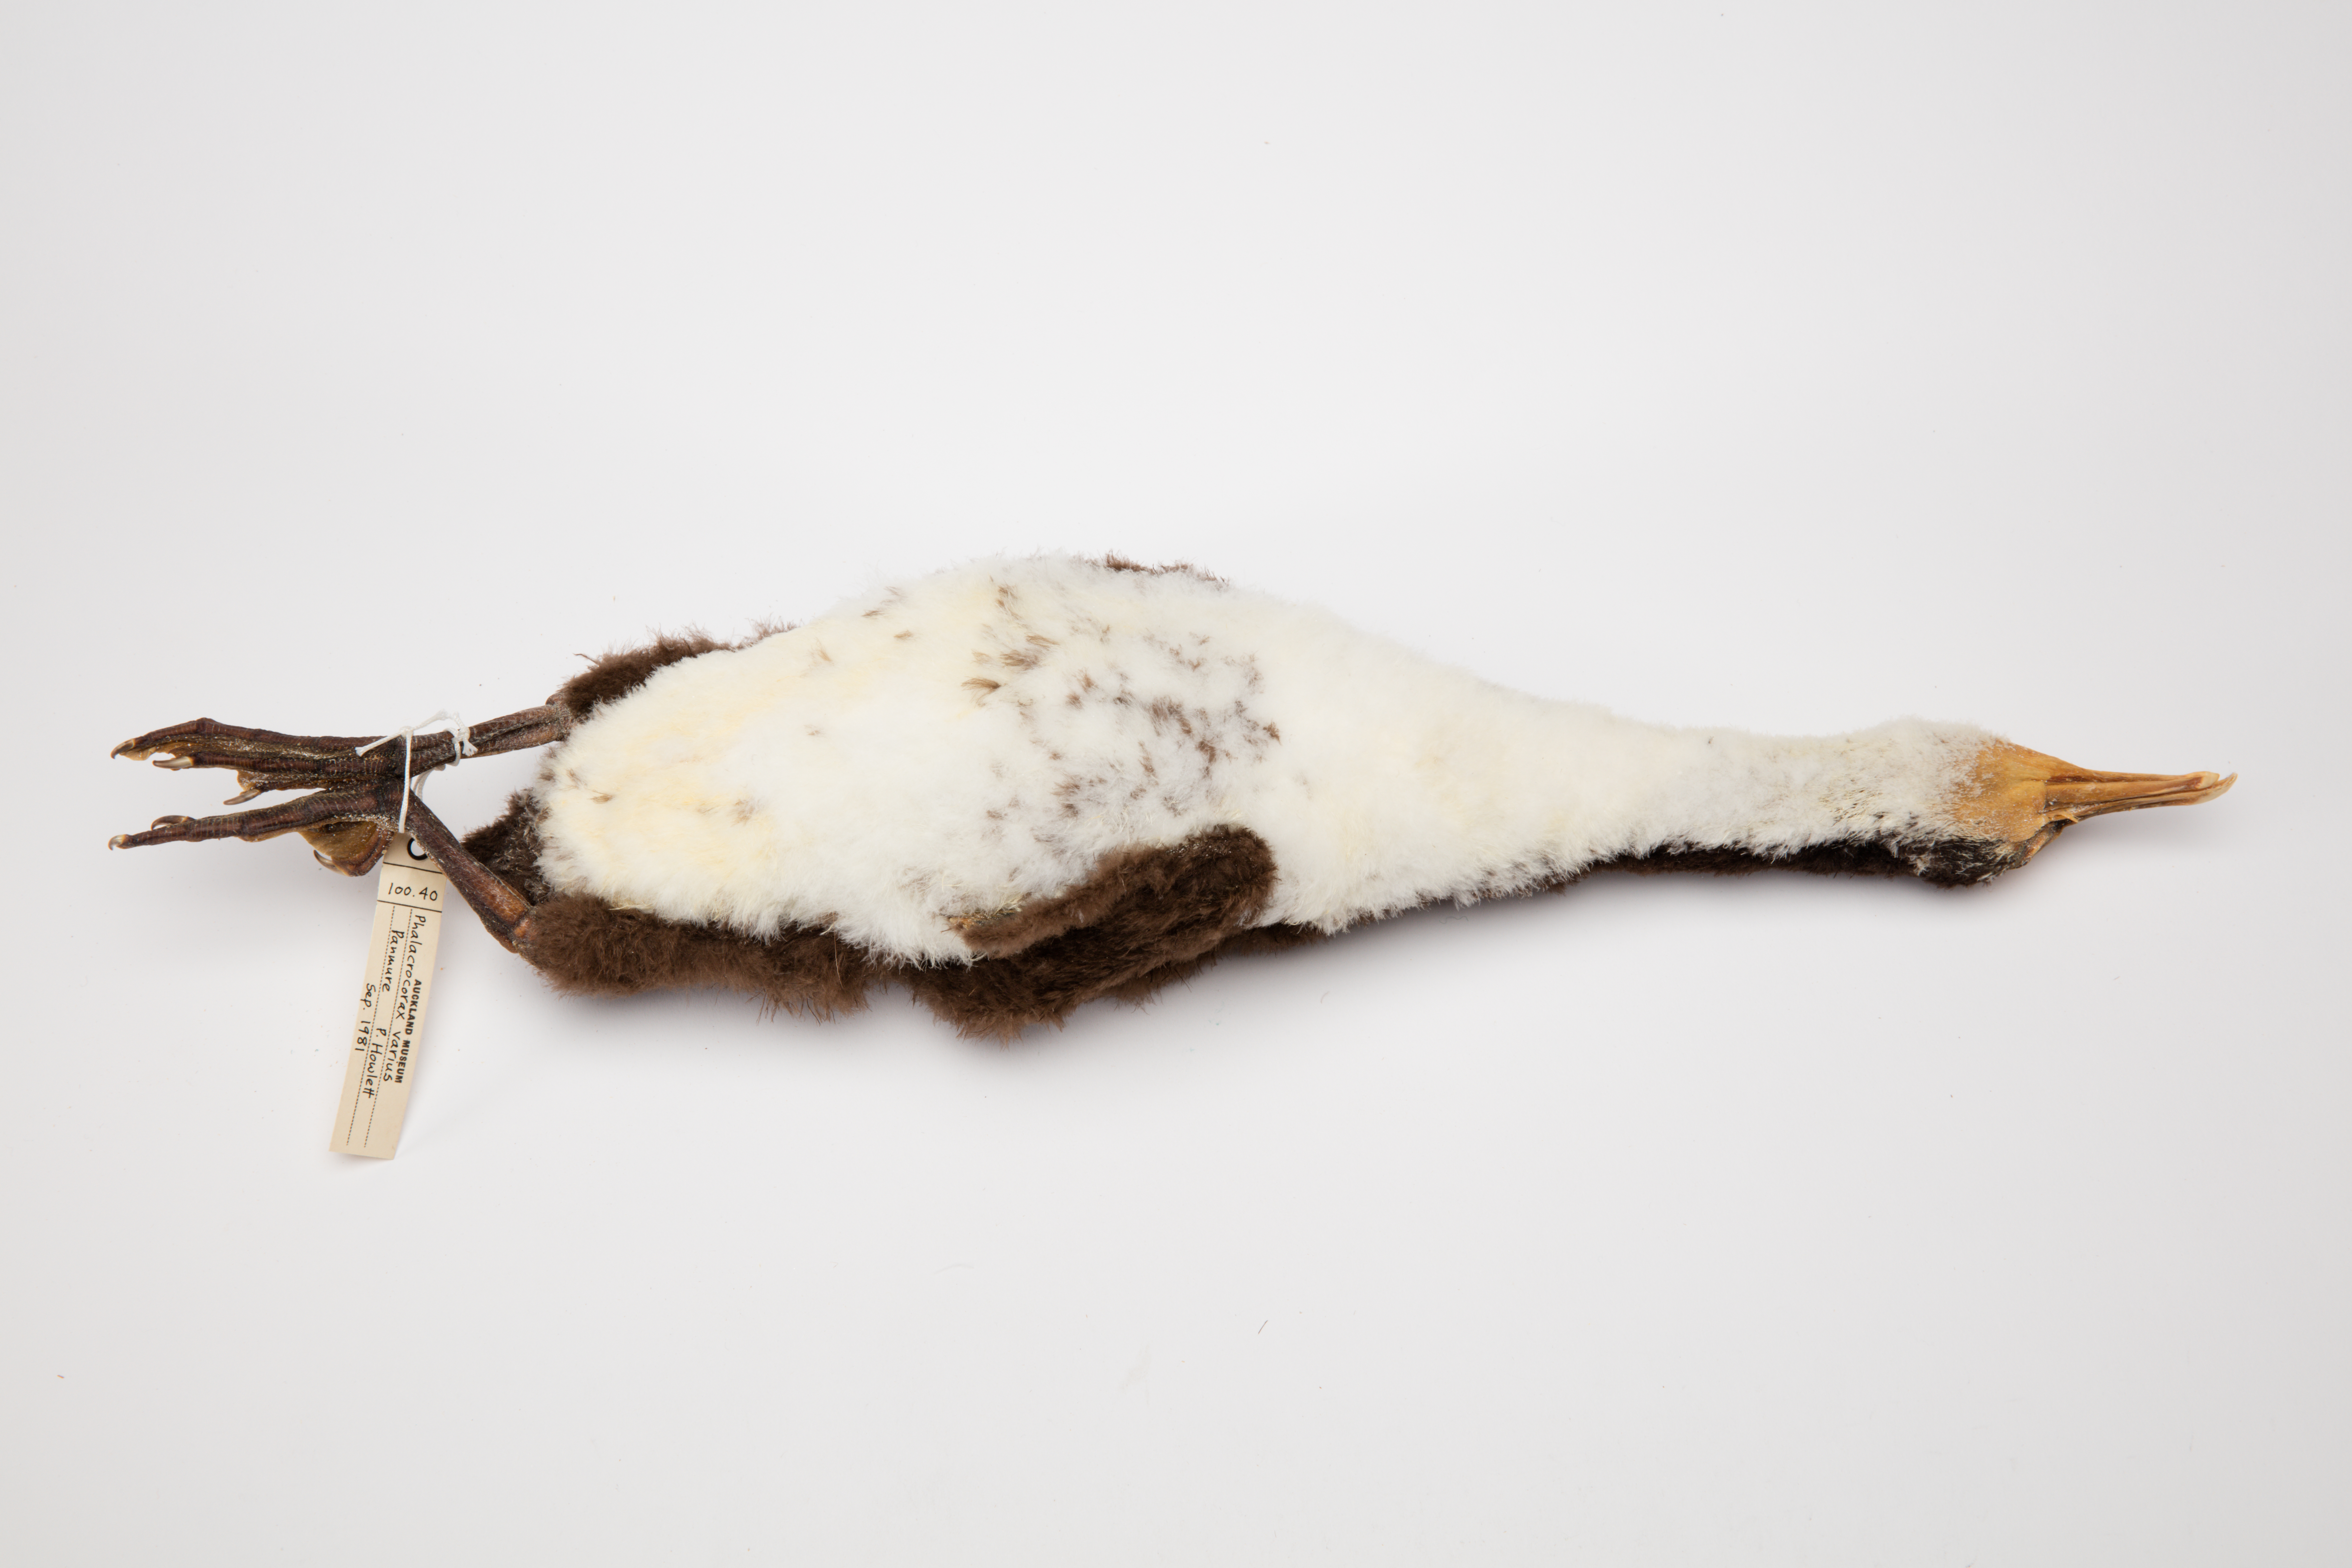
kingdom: Animalia
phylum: Chordata
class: Aves
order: Suliformes
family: Phalacrocoracidae
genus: Phalacrocorax
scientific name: Phalacrocorax varius
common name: Pied cormorant
